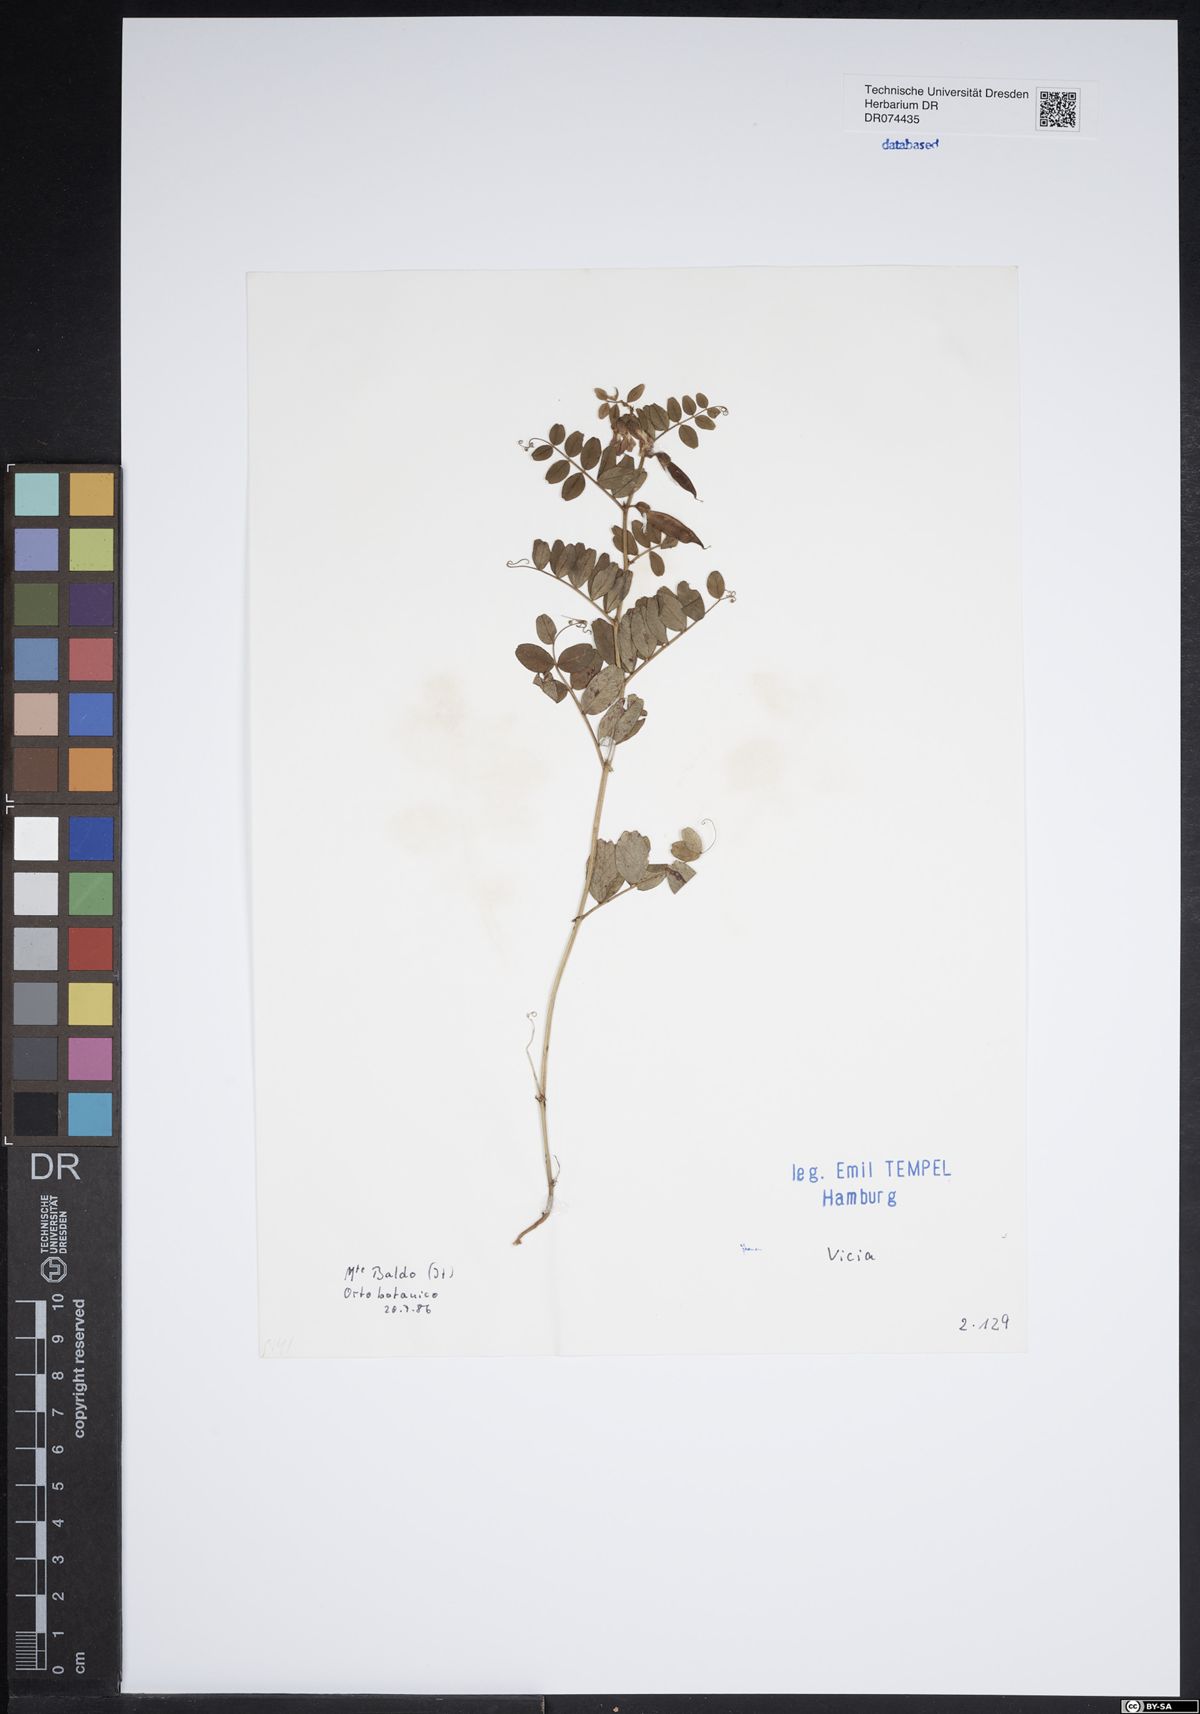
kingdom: Plantae
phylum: Tracheophyta
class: Magnoliopsida
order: Fabales
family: Fabaceae
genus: Vicia
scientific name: Vicia
